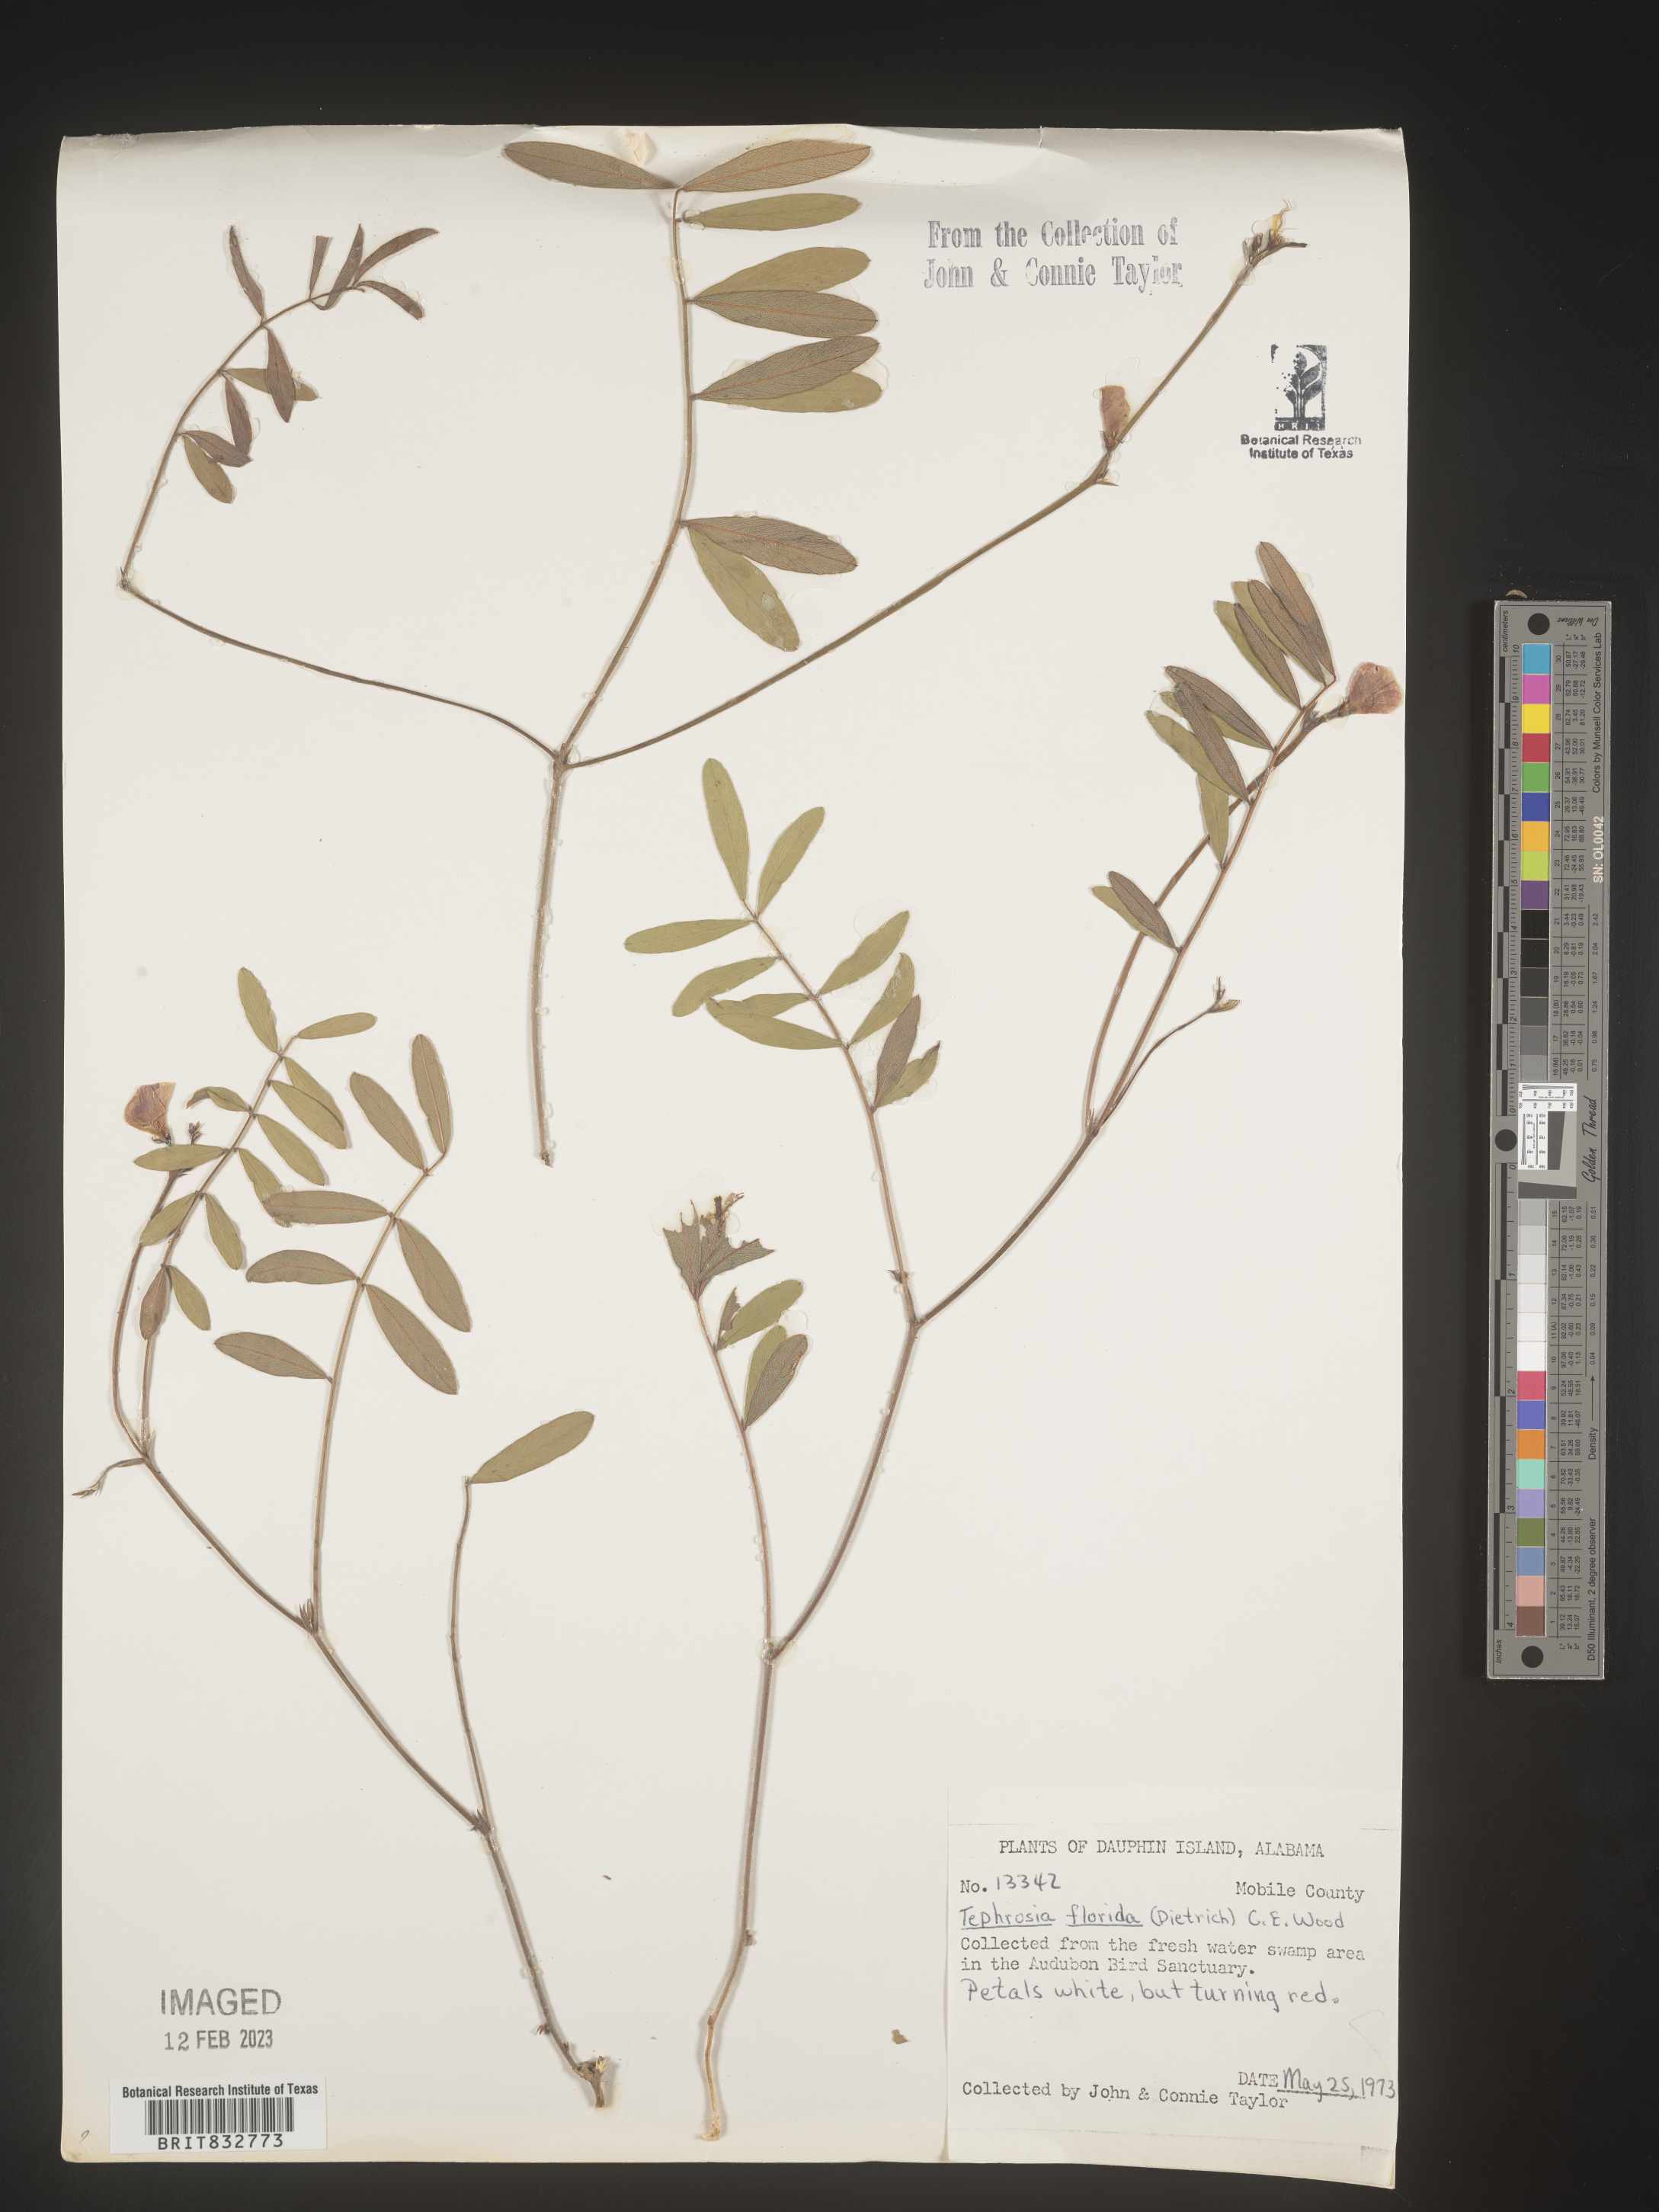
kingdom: Plantae
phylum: Tracheophyta
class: Magnoliopsida
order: Fabales
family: Fabaceae
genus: Tephrosia
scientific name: Tephrosia florida
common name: Florida hoary-pea
